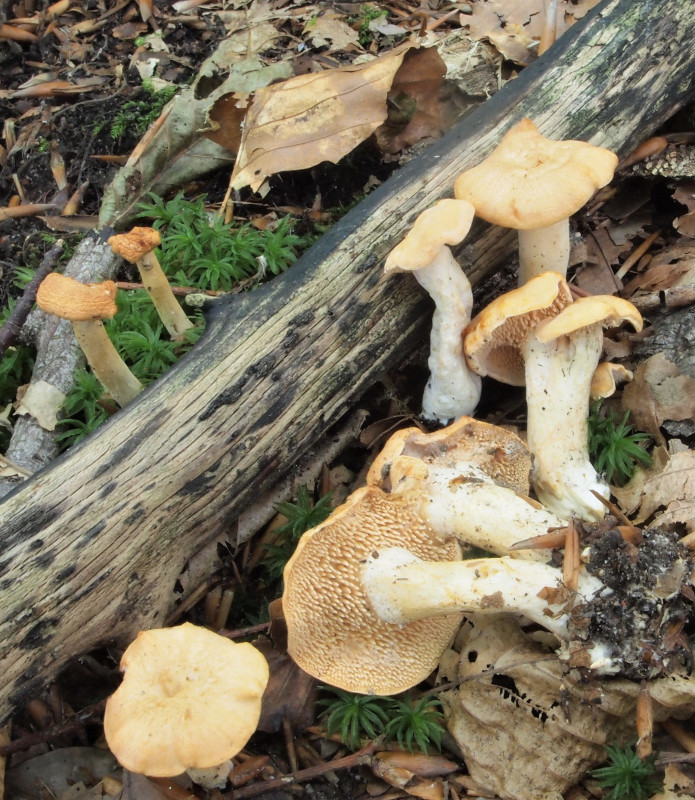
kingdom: Fungi
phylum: Basidiomycota
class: Agaricomycetes
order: Cantharellales
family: Hydnaceae
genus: Hydnum
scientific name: Hydnum
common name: pigsvamp
